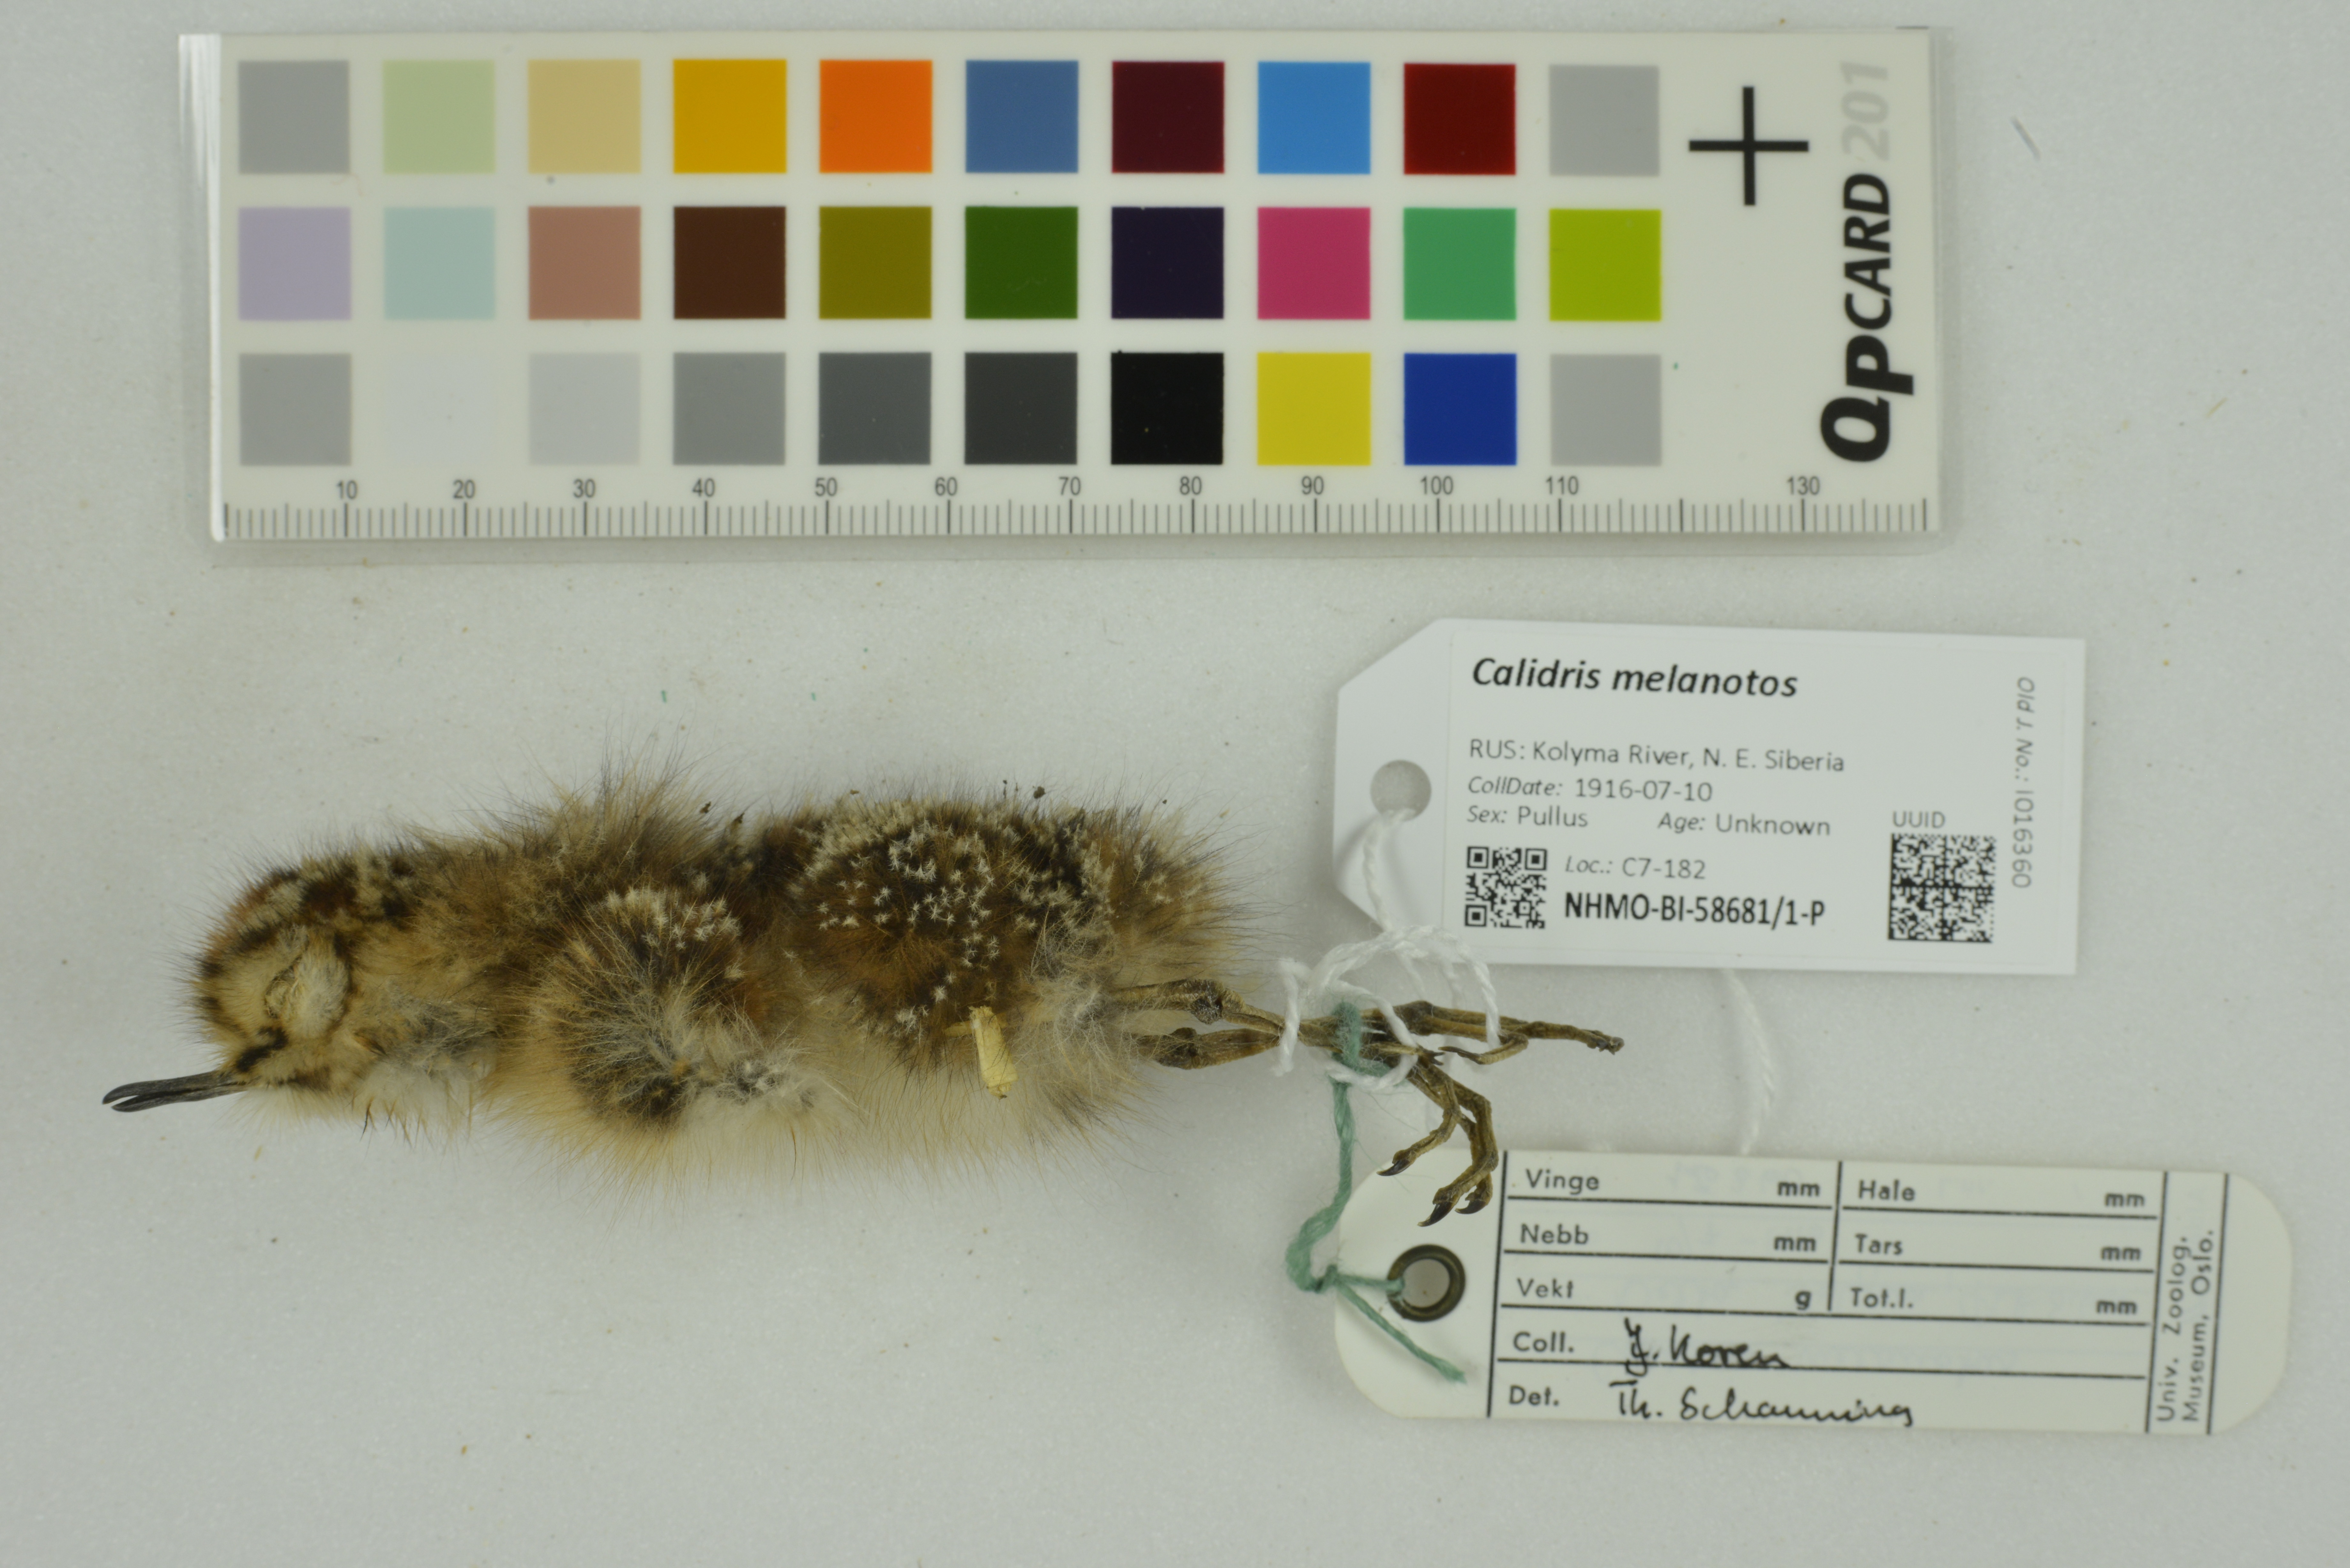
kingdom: Animalia
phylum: Chordata
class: Aves
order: Charadriiformes
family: Scolopacidae
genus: Calidris
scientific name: Calidris melanotos
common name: Pectoral sandpiper
